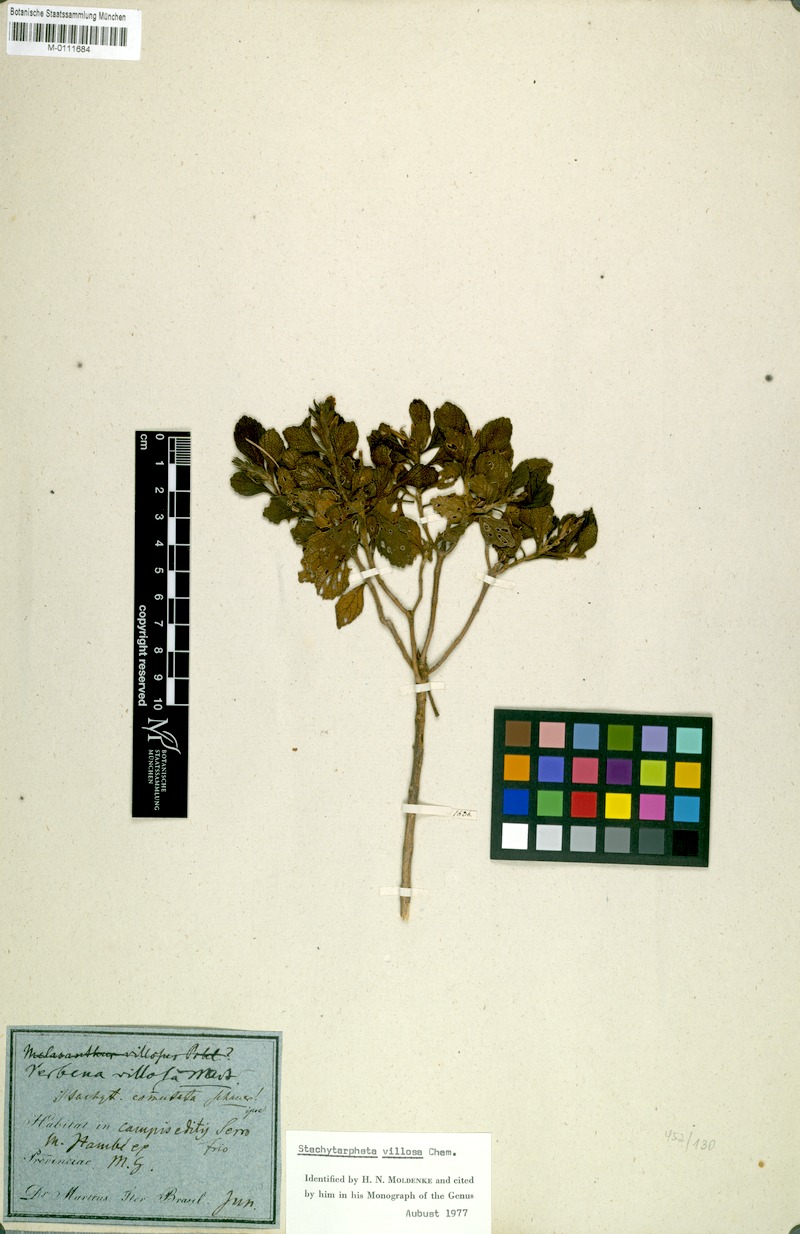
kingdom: Plantae
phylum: Tracheophyta
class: Magnoliopsida
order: Lamiales
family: Verbenaceae
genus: Stachytarpheta
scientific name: Stachytarpheta commutata
